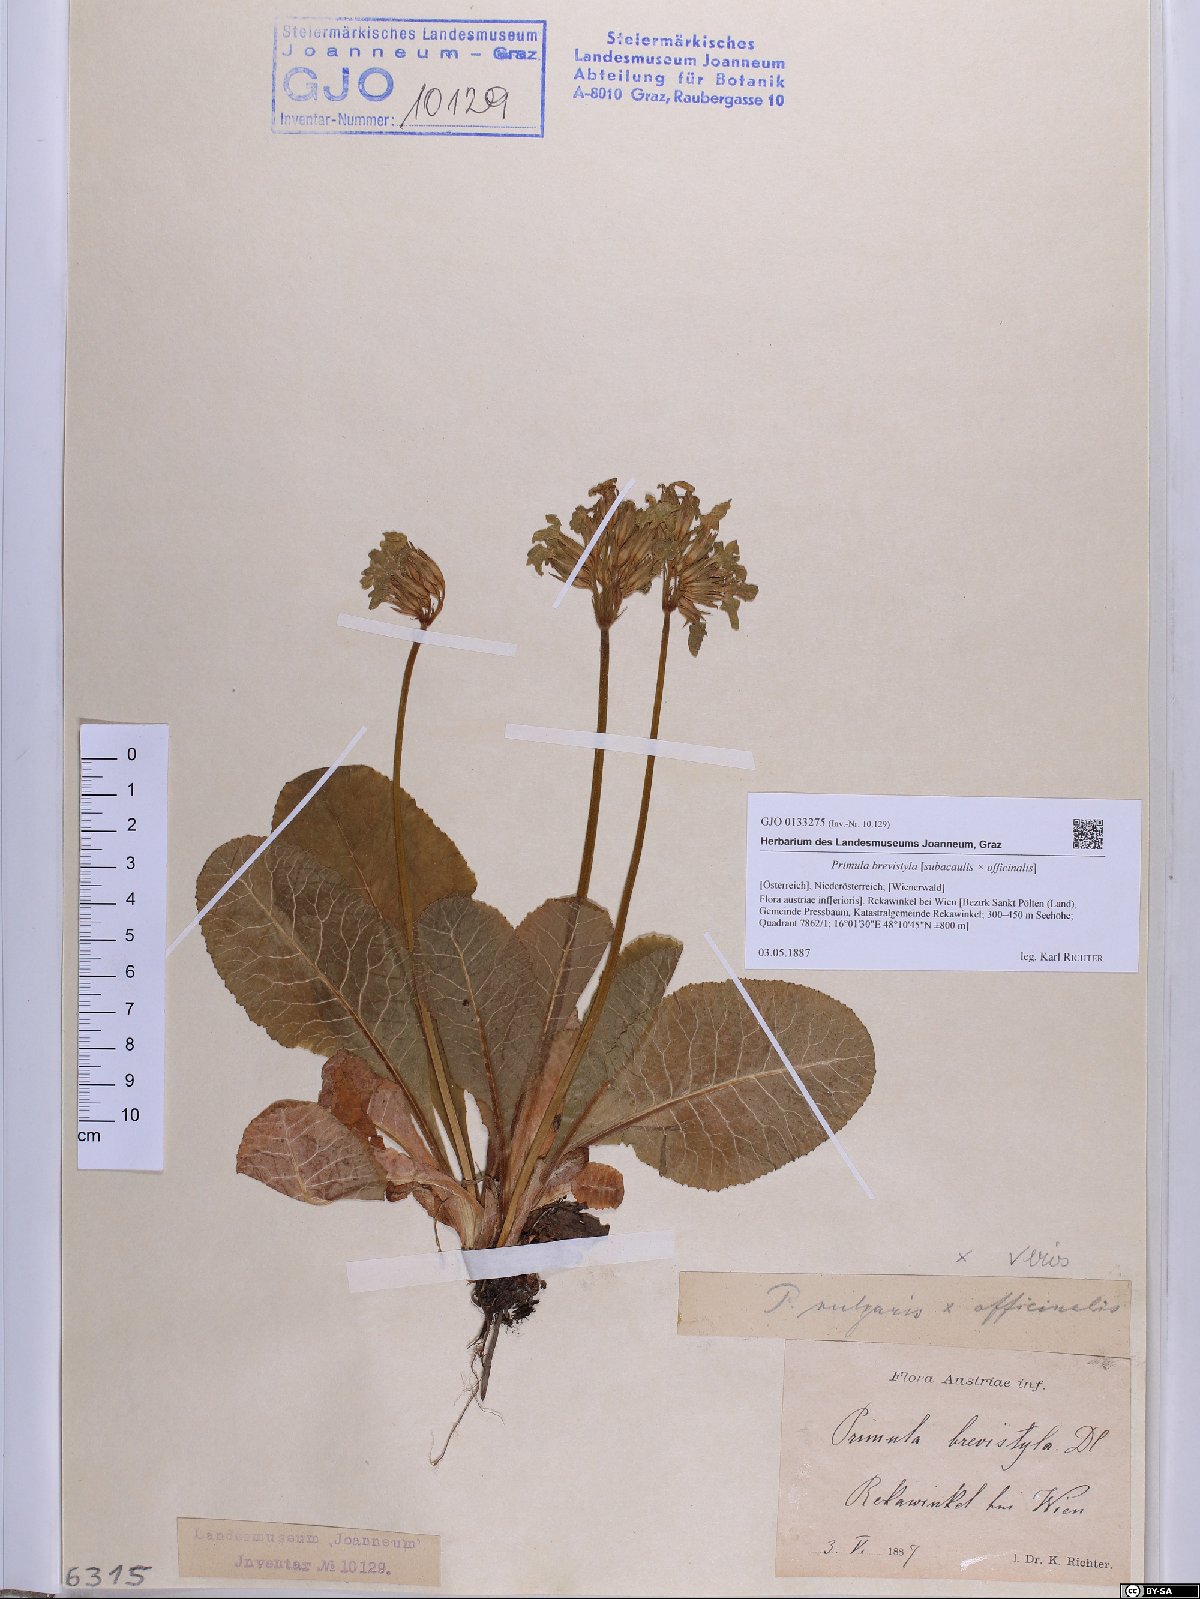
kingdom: Plantae
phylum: Tracheophyta
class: Magnoliopsida
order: Ericales
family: Primulaceae
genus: Primula
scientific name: Primula polyantha
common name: False oxlip
